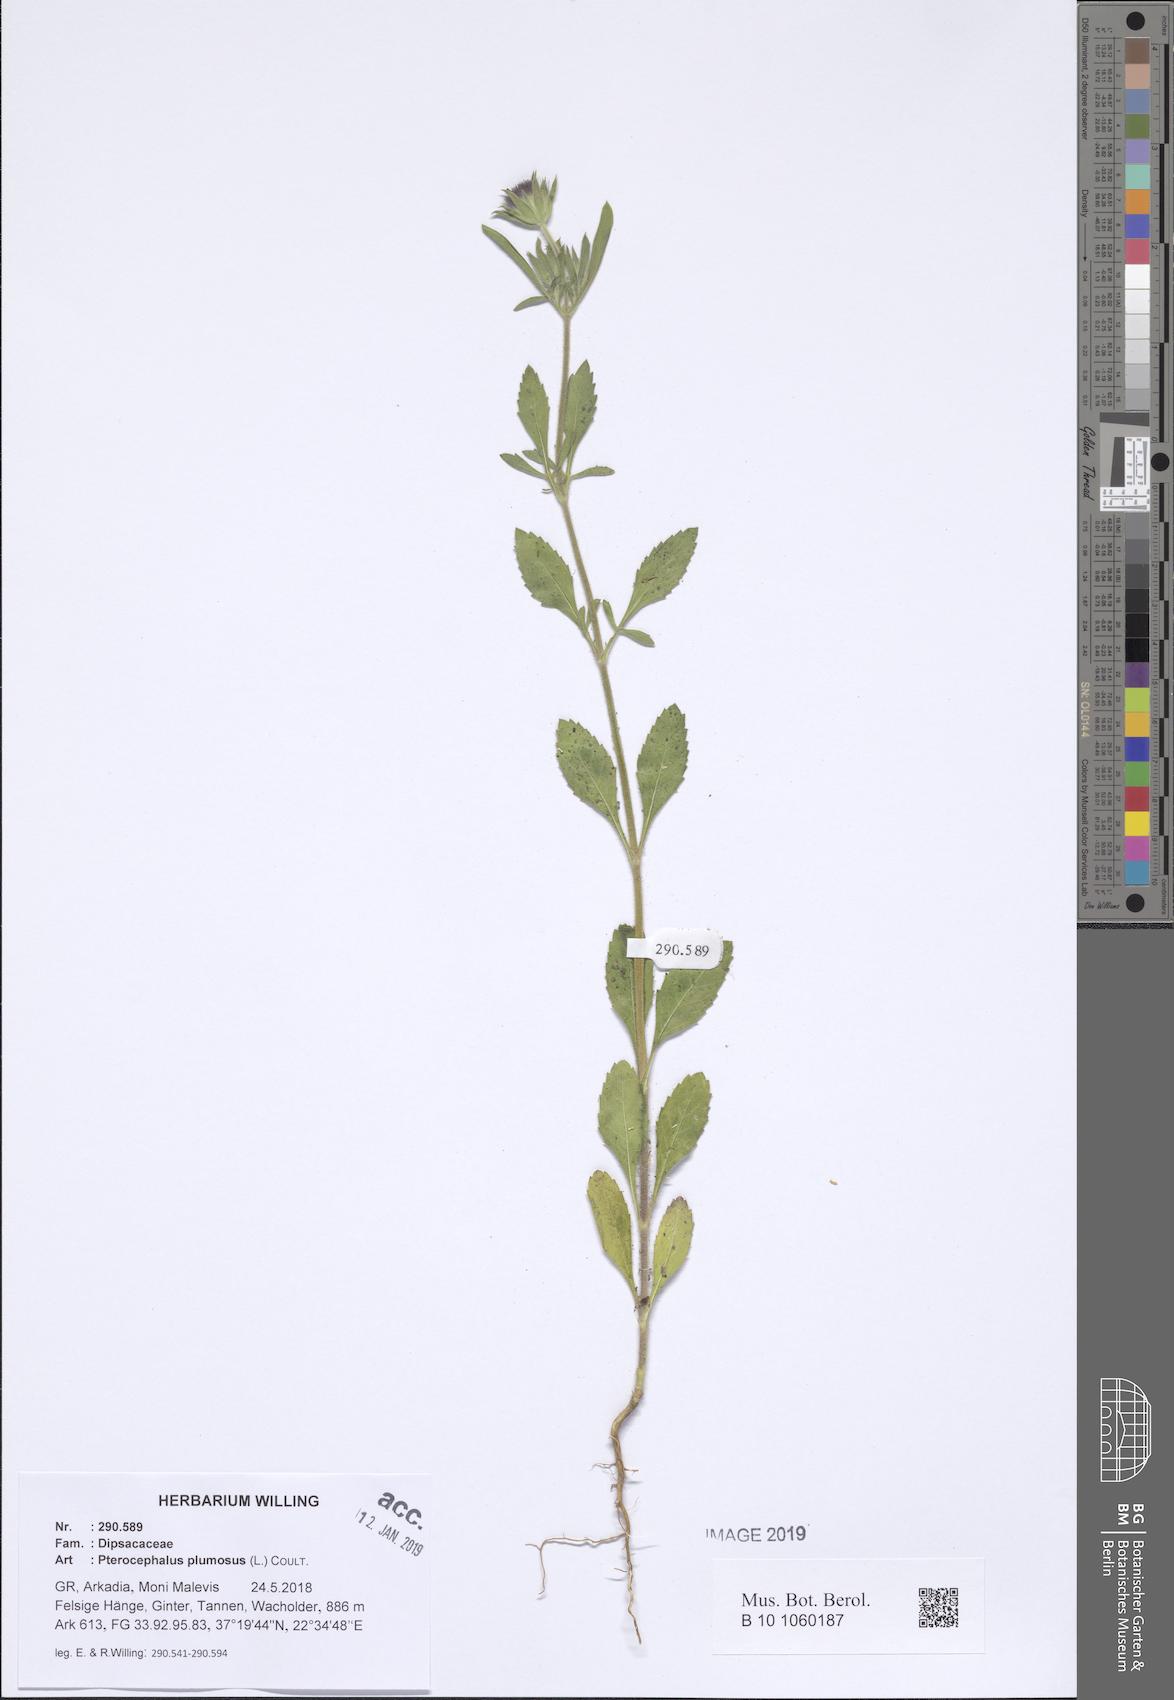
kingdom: Plantae
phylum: Tracheophyta
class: Magnoliopsida
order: Dipsacales
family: Caprifoliaceae
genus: Pterocephalus
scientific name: Pterocephalus plumosus
